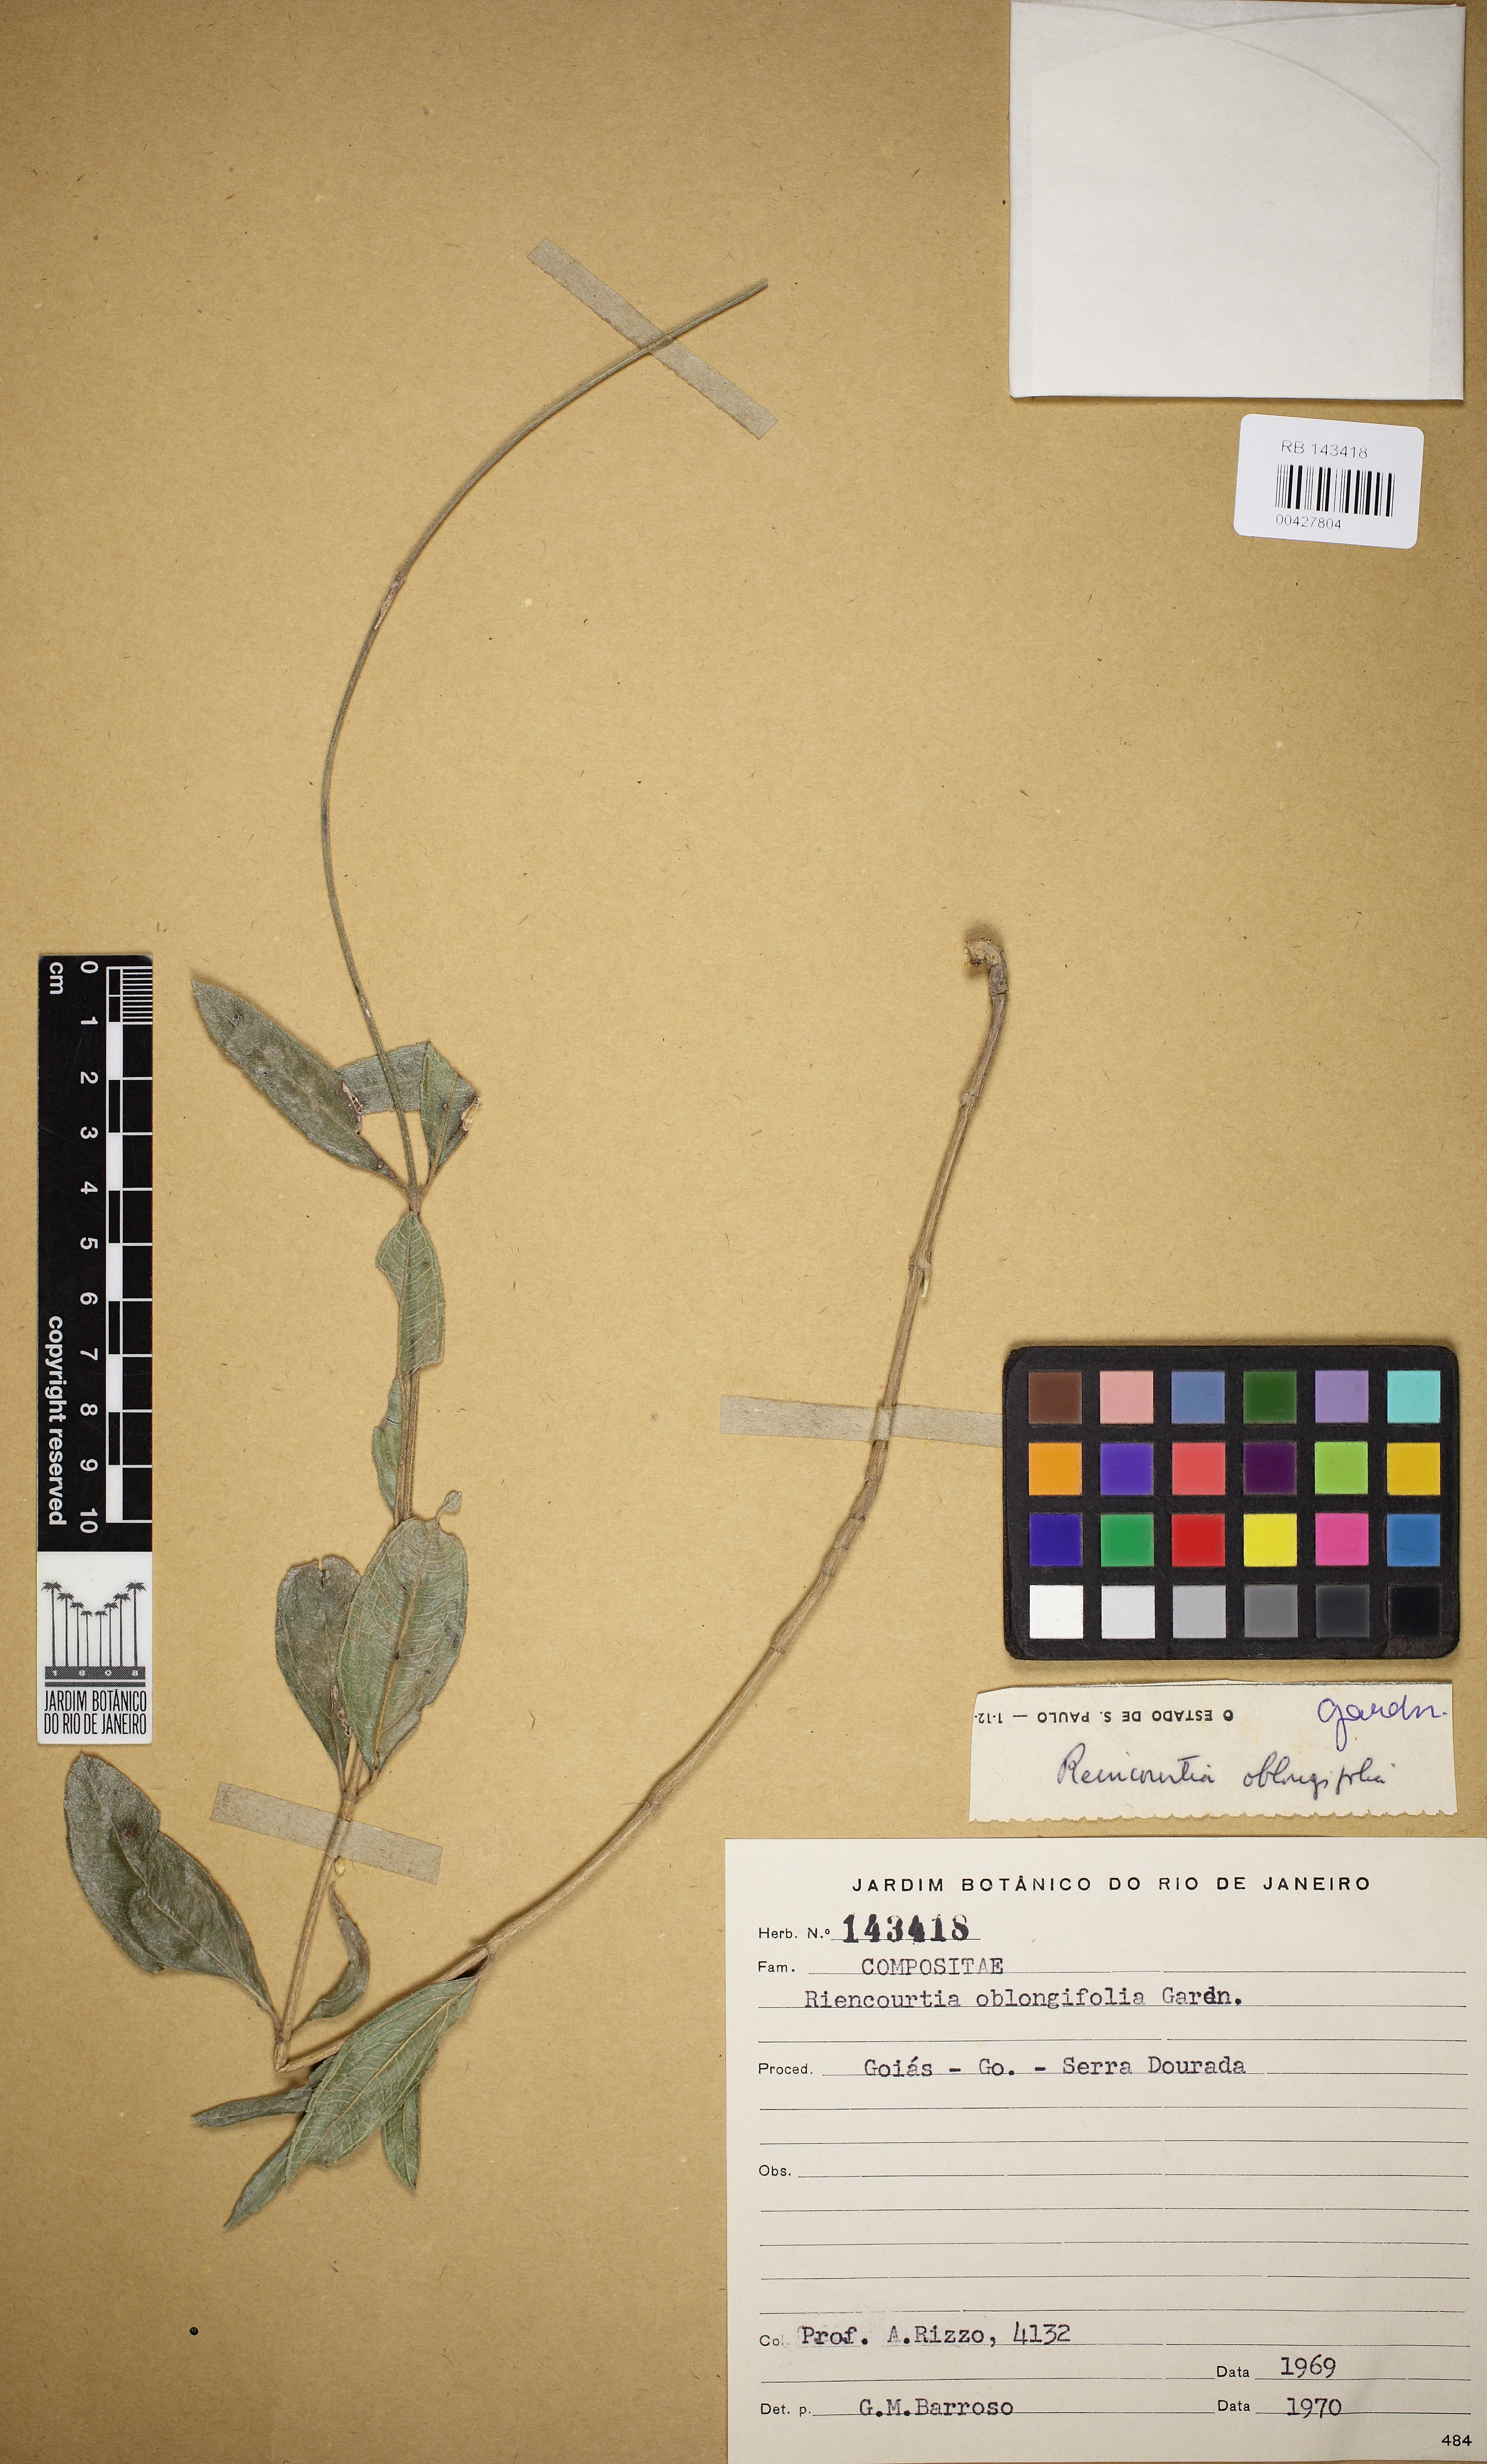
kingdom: Plantae
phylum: Tracheophyta
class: Magnoliopsida
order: Asterales
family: Asteraceae
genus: Riencourtia
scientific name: Riencourtia oblongifolia
